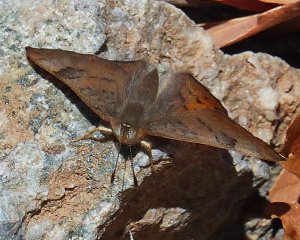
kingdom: Animalia
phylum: Arthropoda
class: Insecta
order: Lepidoptera
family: Lycaenidae
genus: Emesis
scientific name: Emesis zela
